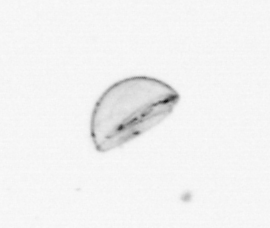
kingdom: Chromista
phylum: Ochrophyta
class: Bacillariophyceae
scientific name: Bacillariophyceae
